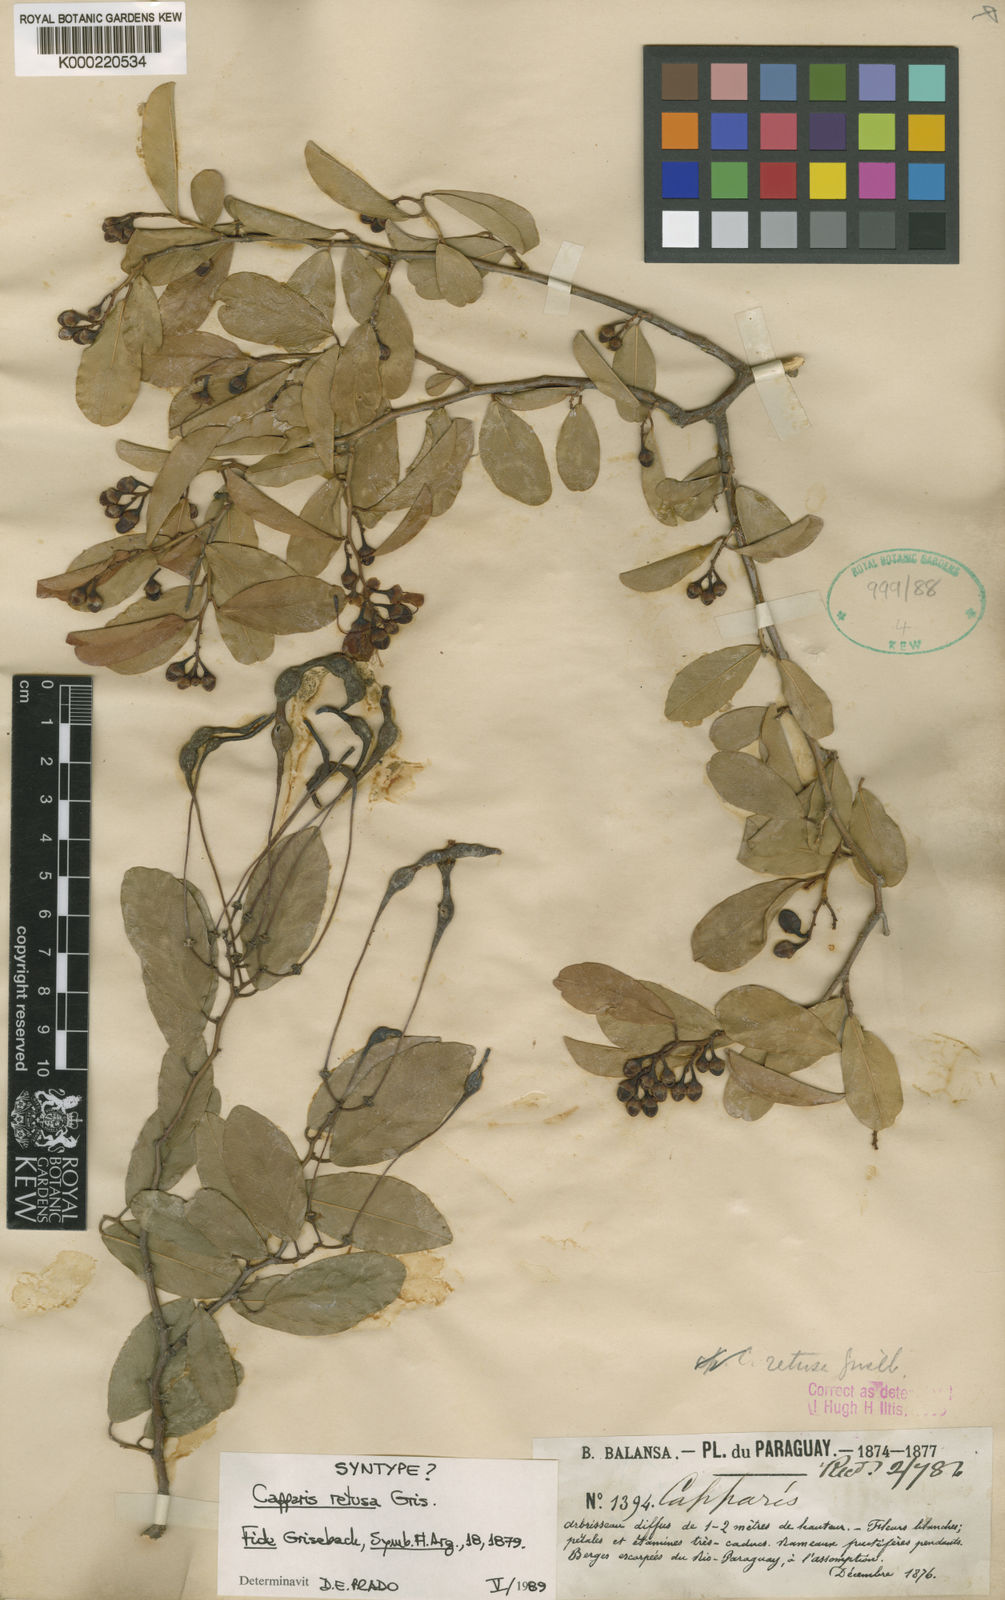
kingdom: Plantae
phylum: Tracheophyta
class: Magnoliopsida
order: Brassicales
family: Capparaceae
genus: Cynophalla
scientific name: Cynophalla retusa
